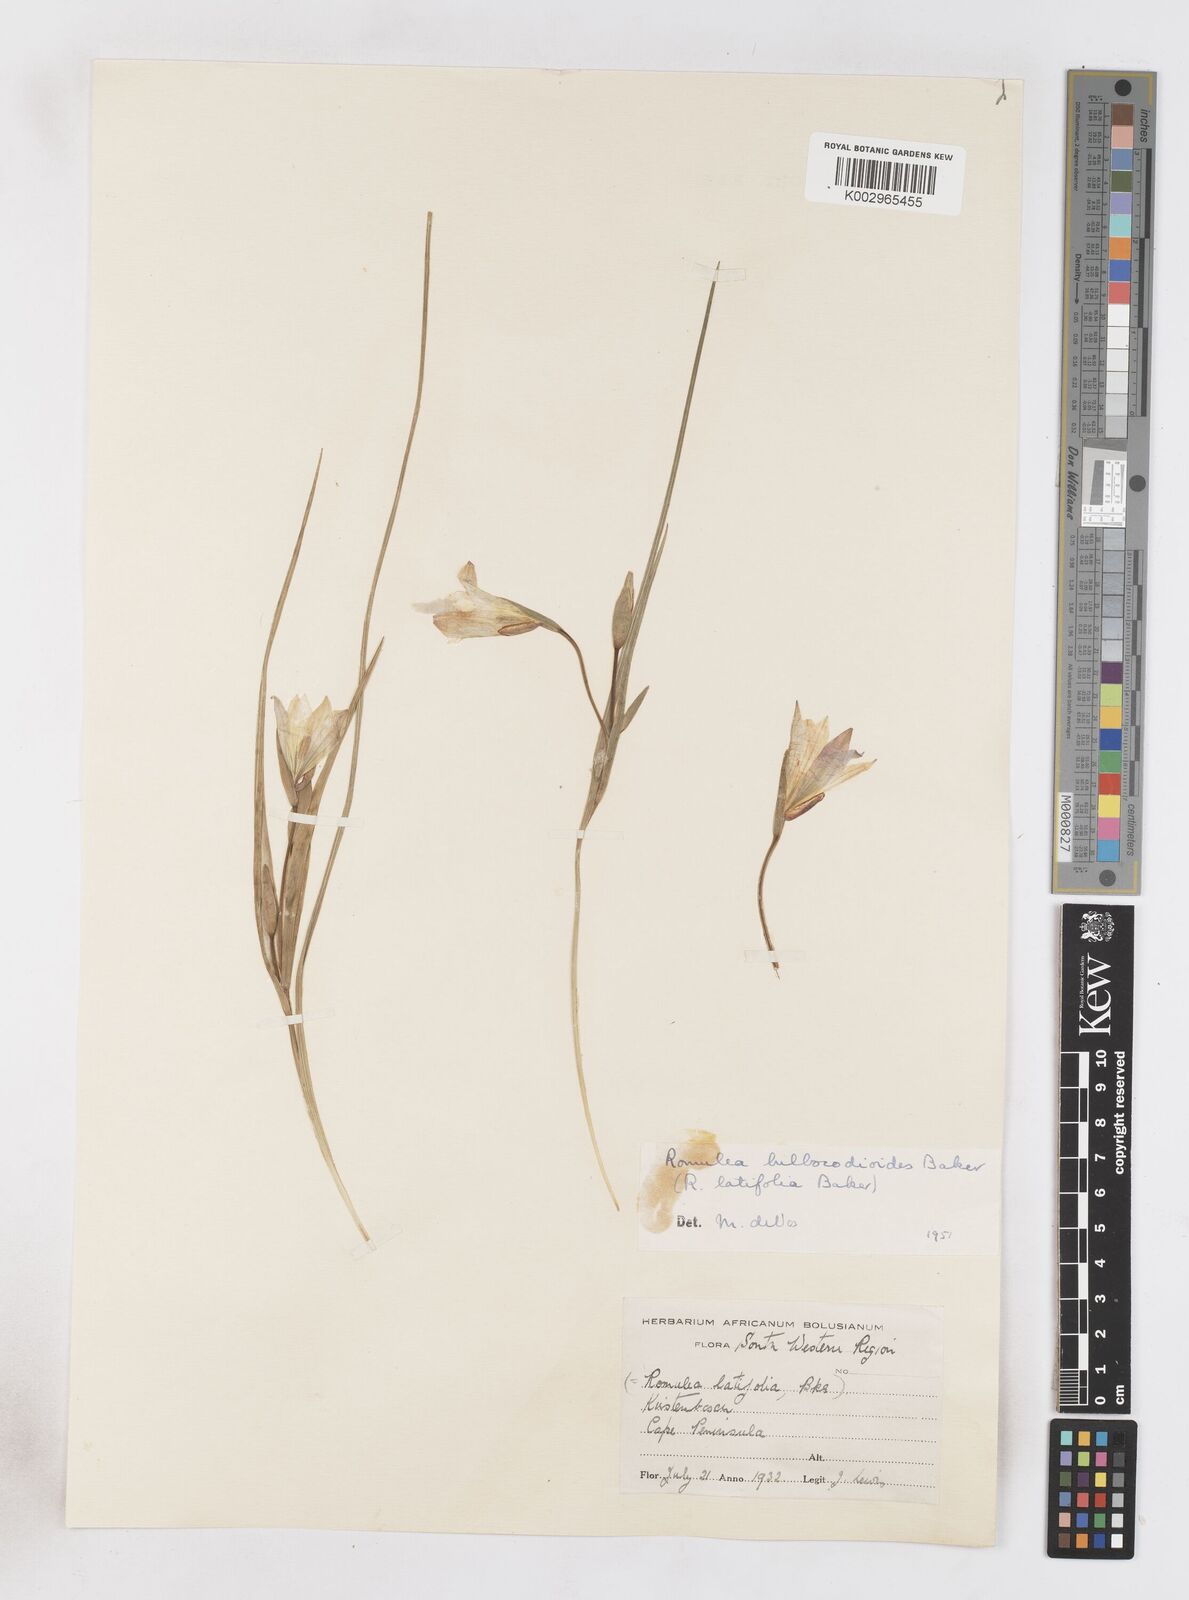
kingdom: Plantae
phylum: Tracheophyta
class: Liliopsida
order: Asparagales
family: Iridaceae
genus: Romulea
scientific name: Romulea flava
